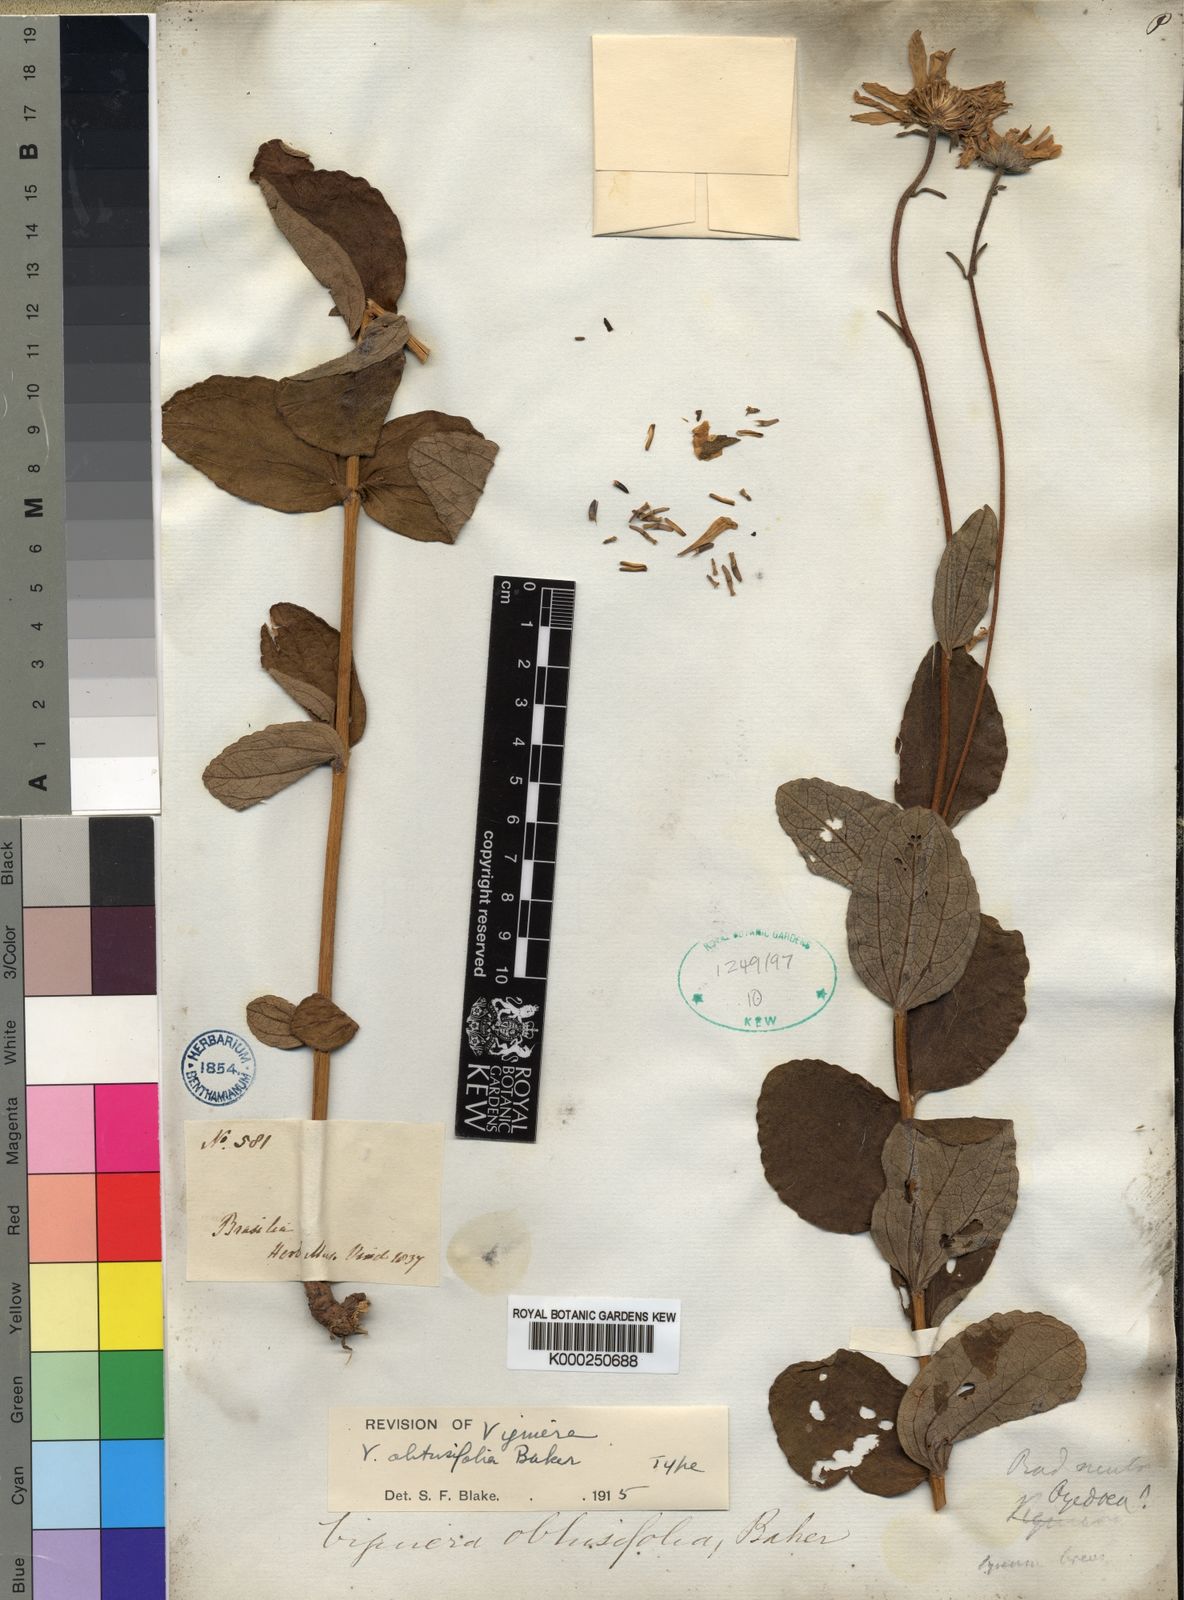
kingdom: Plantae
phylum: Tracheophyta
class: Magnoliopsida
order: Asterales
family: Asteraceae
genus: Aldama
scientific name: Aldama discolor
